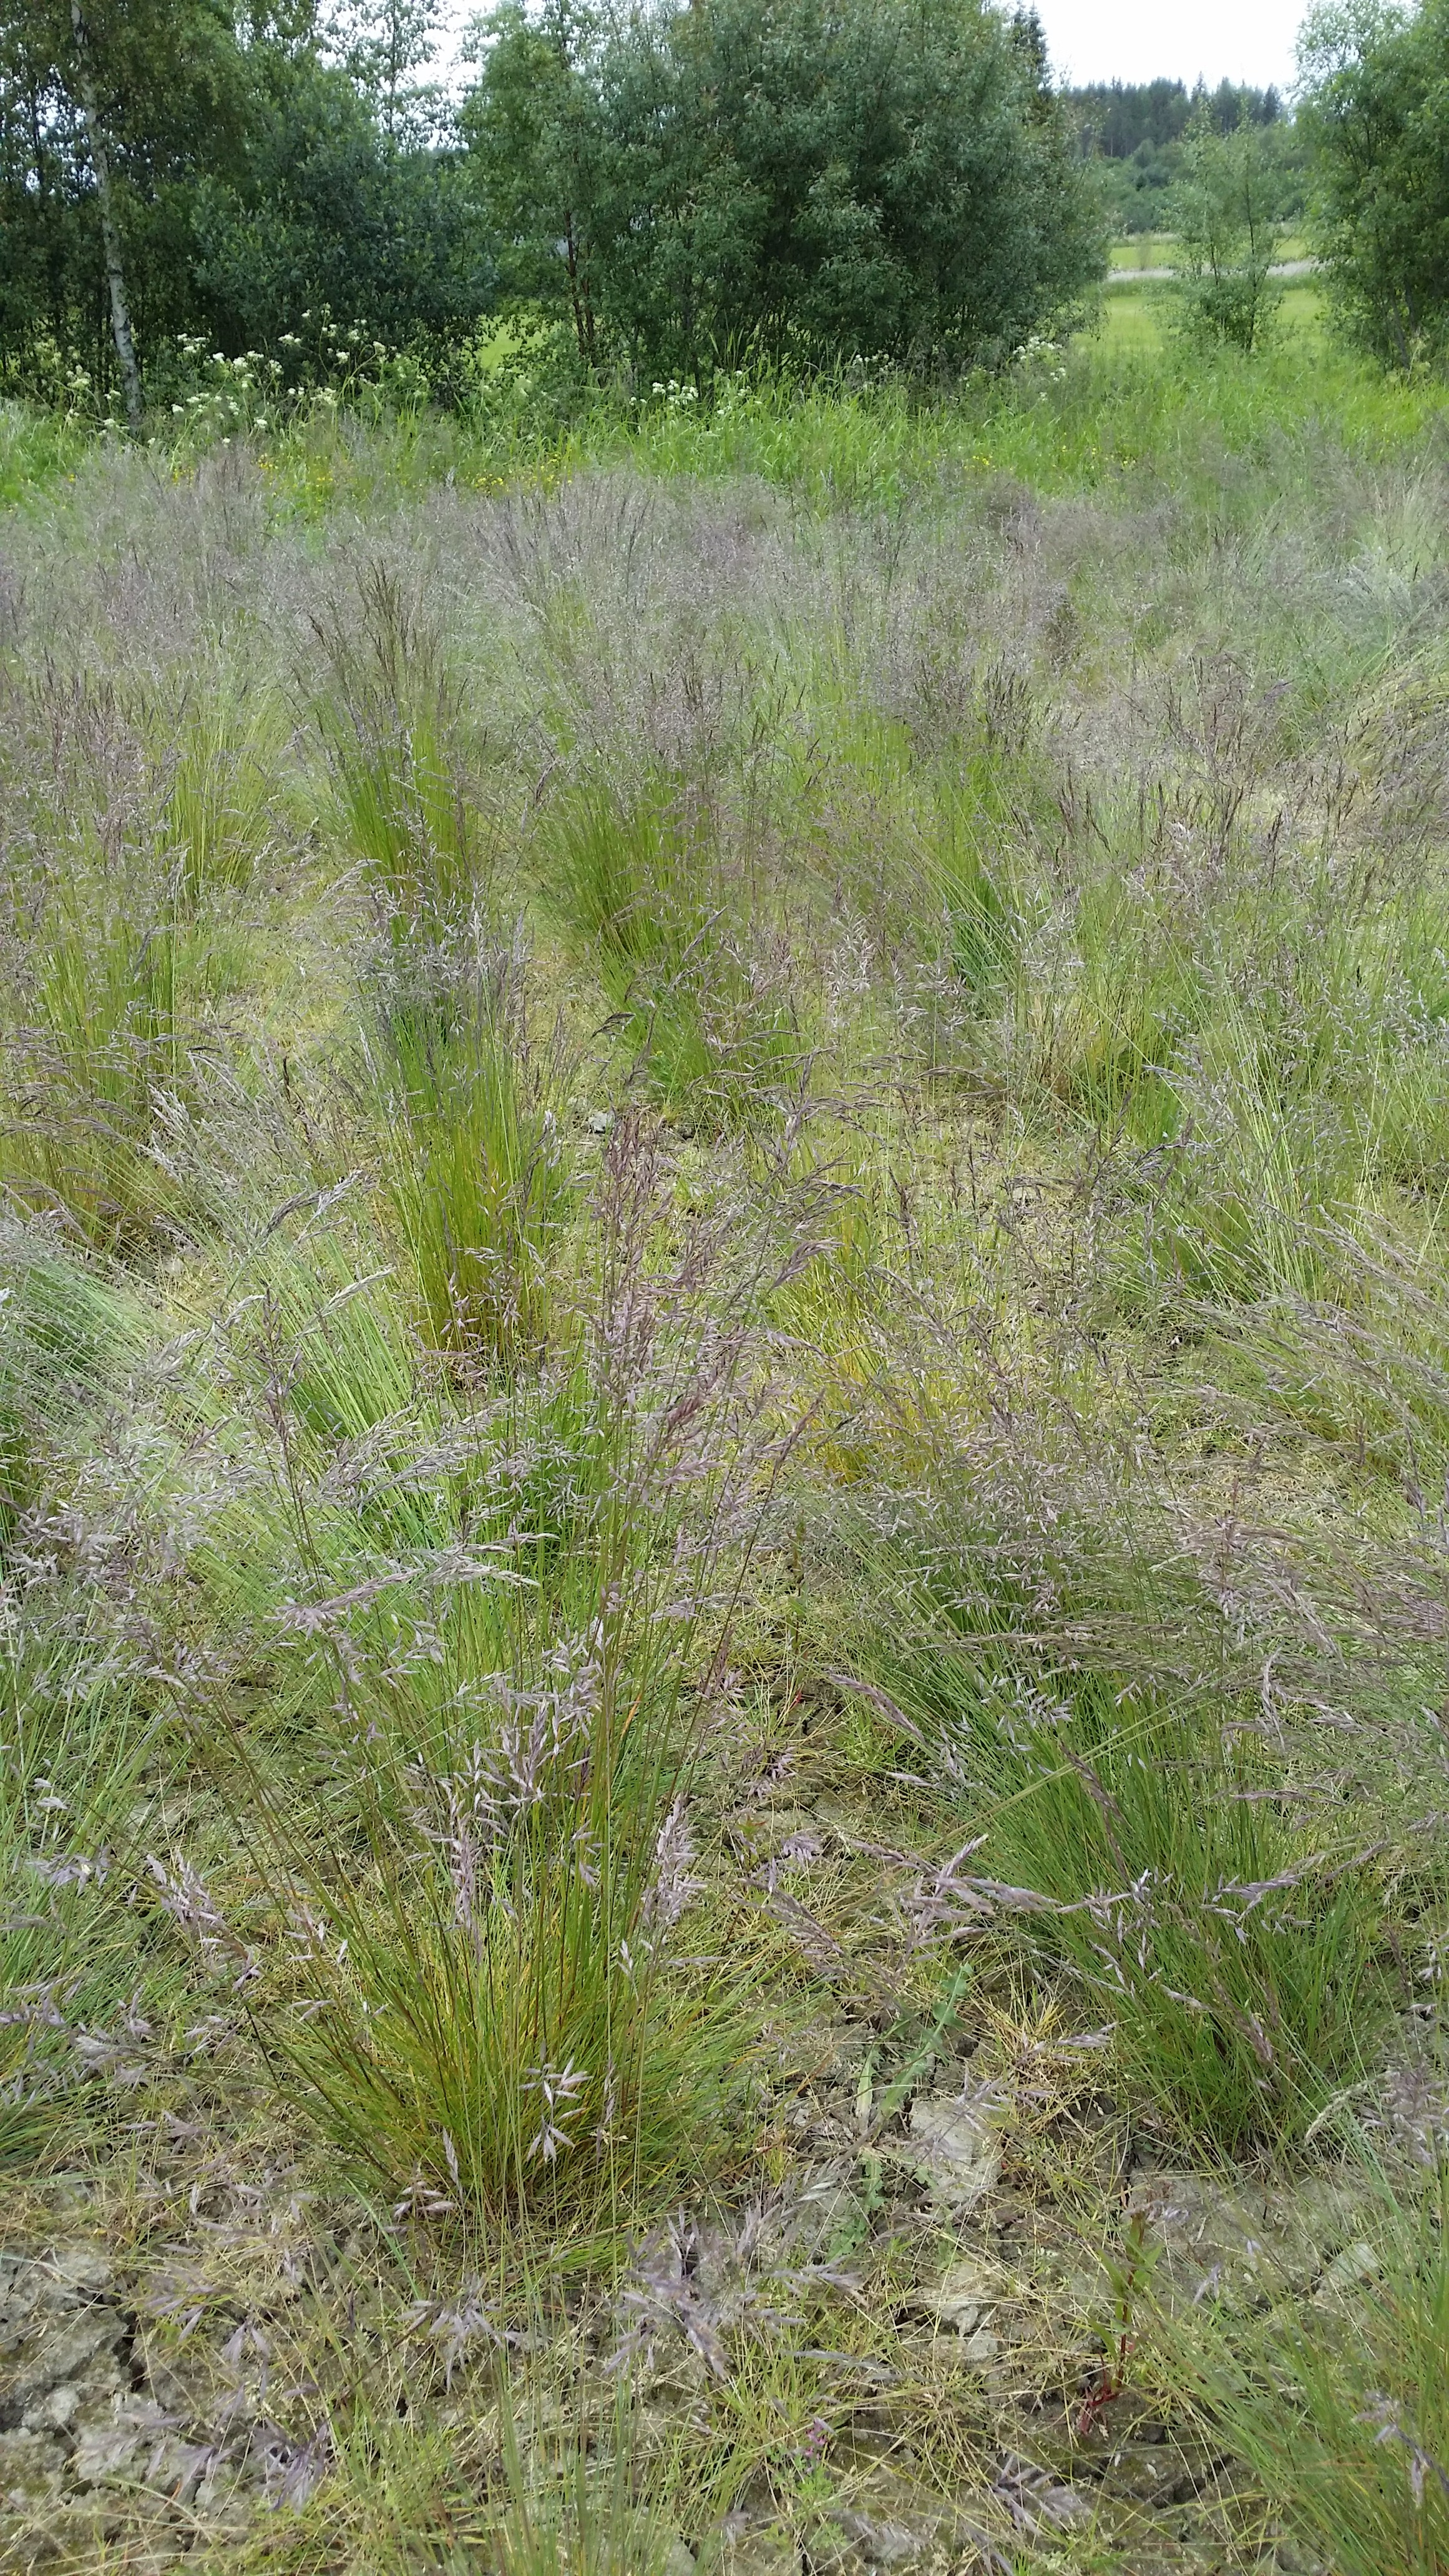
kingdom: Plantae
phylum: Tracheophyta
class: Liliopsida
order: Poales
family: Poaceae
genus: Festuca
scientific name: Festuca rubra
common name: Red fescue
